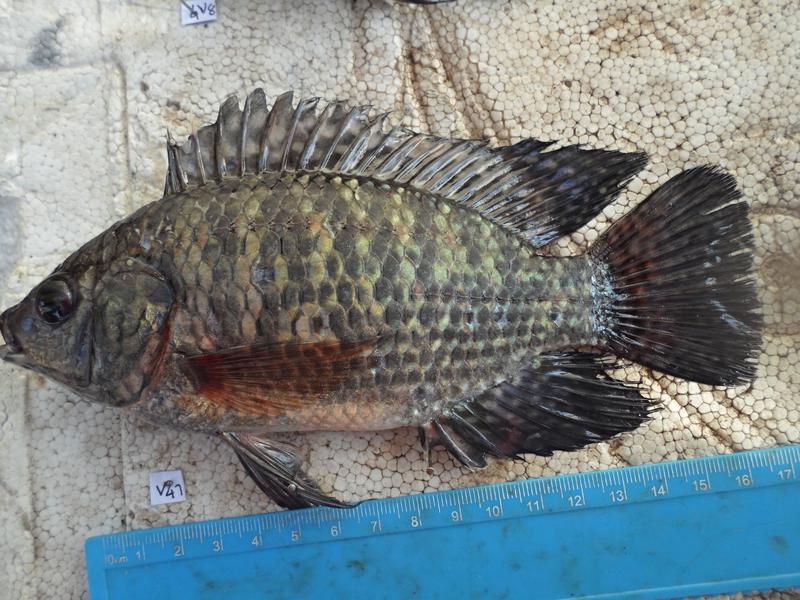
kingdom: Animalia
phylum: Chordata
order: Perciformes
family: Cichlidae
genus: Oreochromis
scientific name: Oreochromis leucostictus
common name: Blue spotted tilapia
